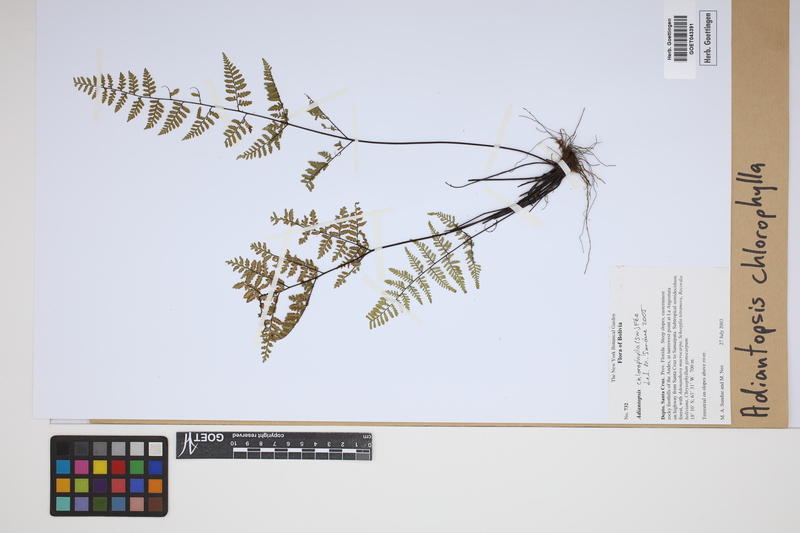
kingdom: Plantae
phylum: Tracheophyta
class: Polypodiopsida
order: Polypodiales
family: Pteridaceae
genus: Adiantopsis
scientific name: Adiantopsis chlorophylla
